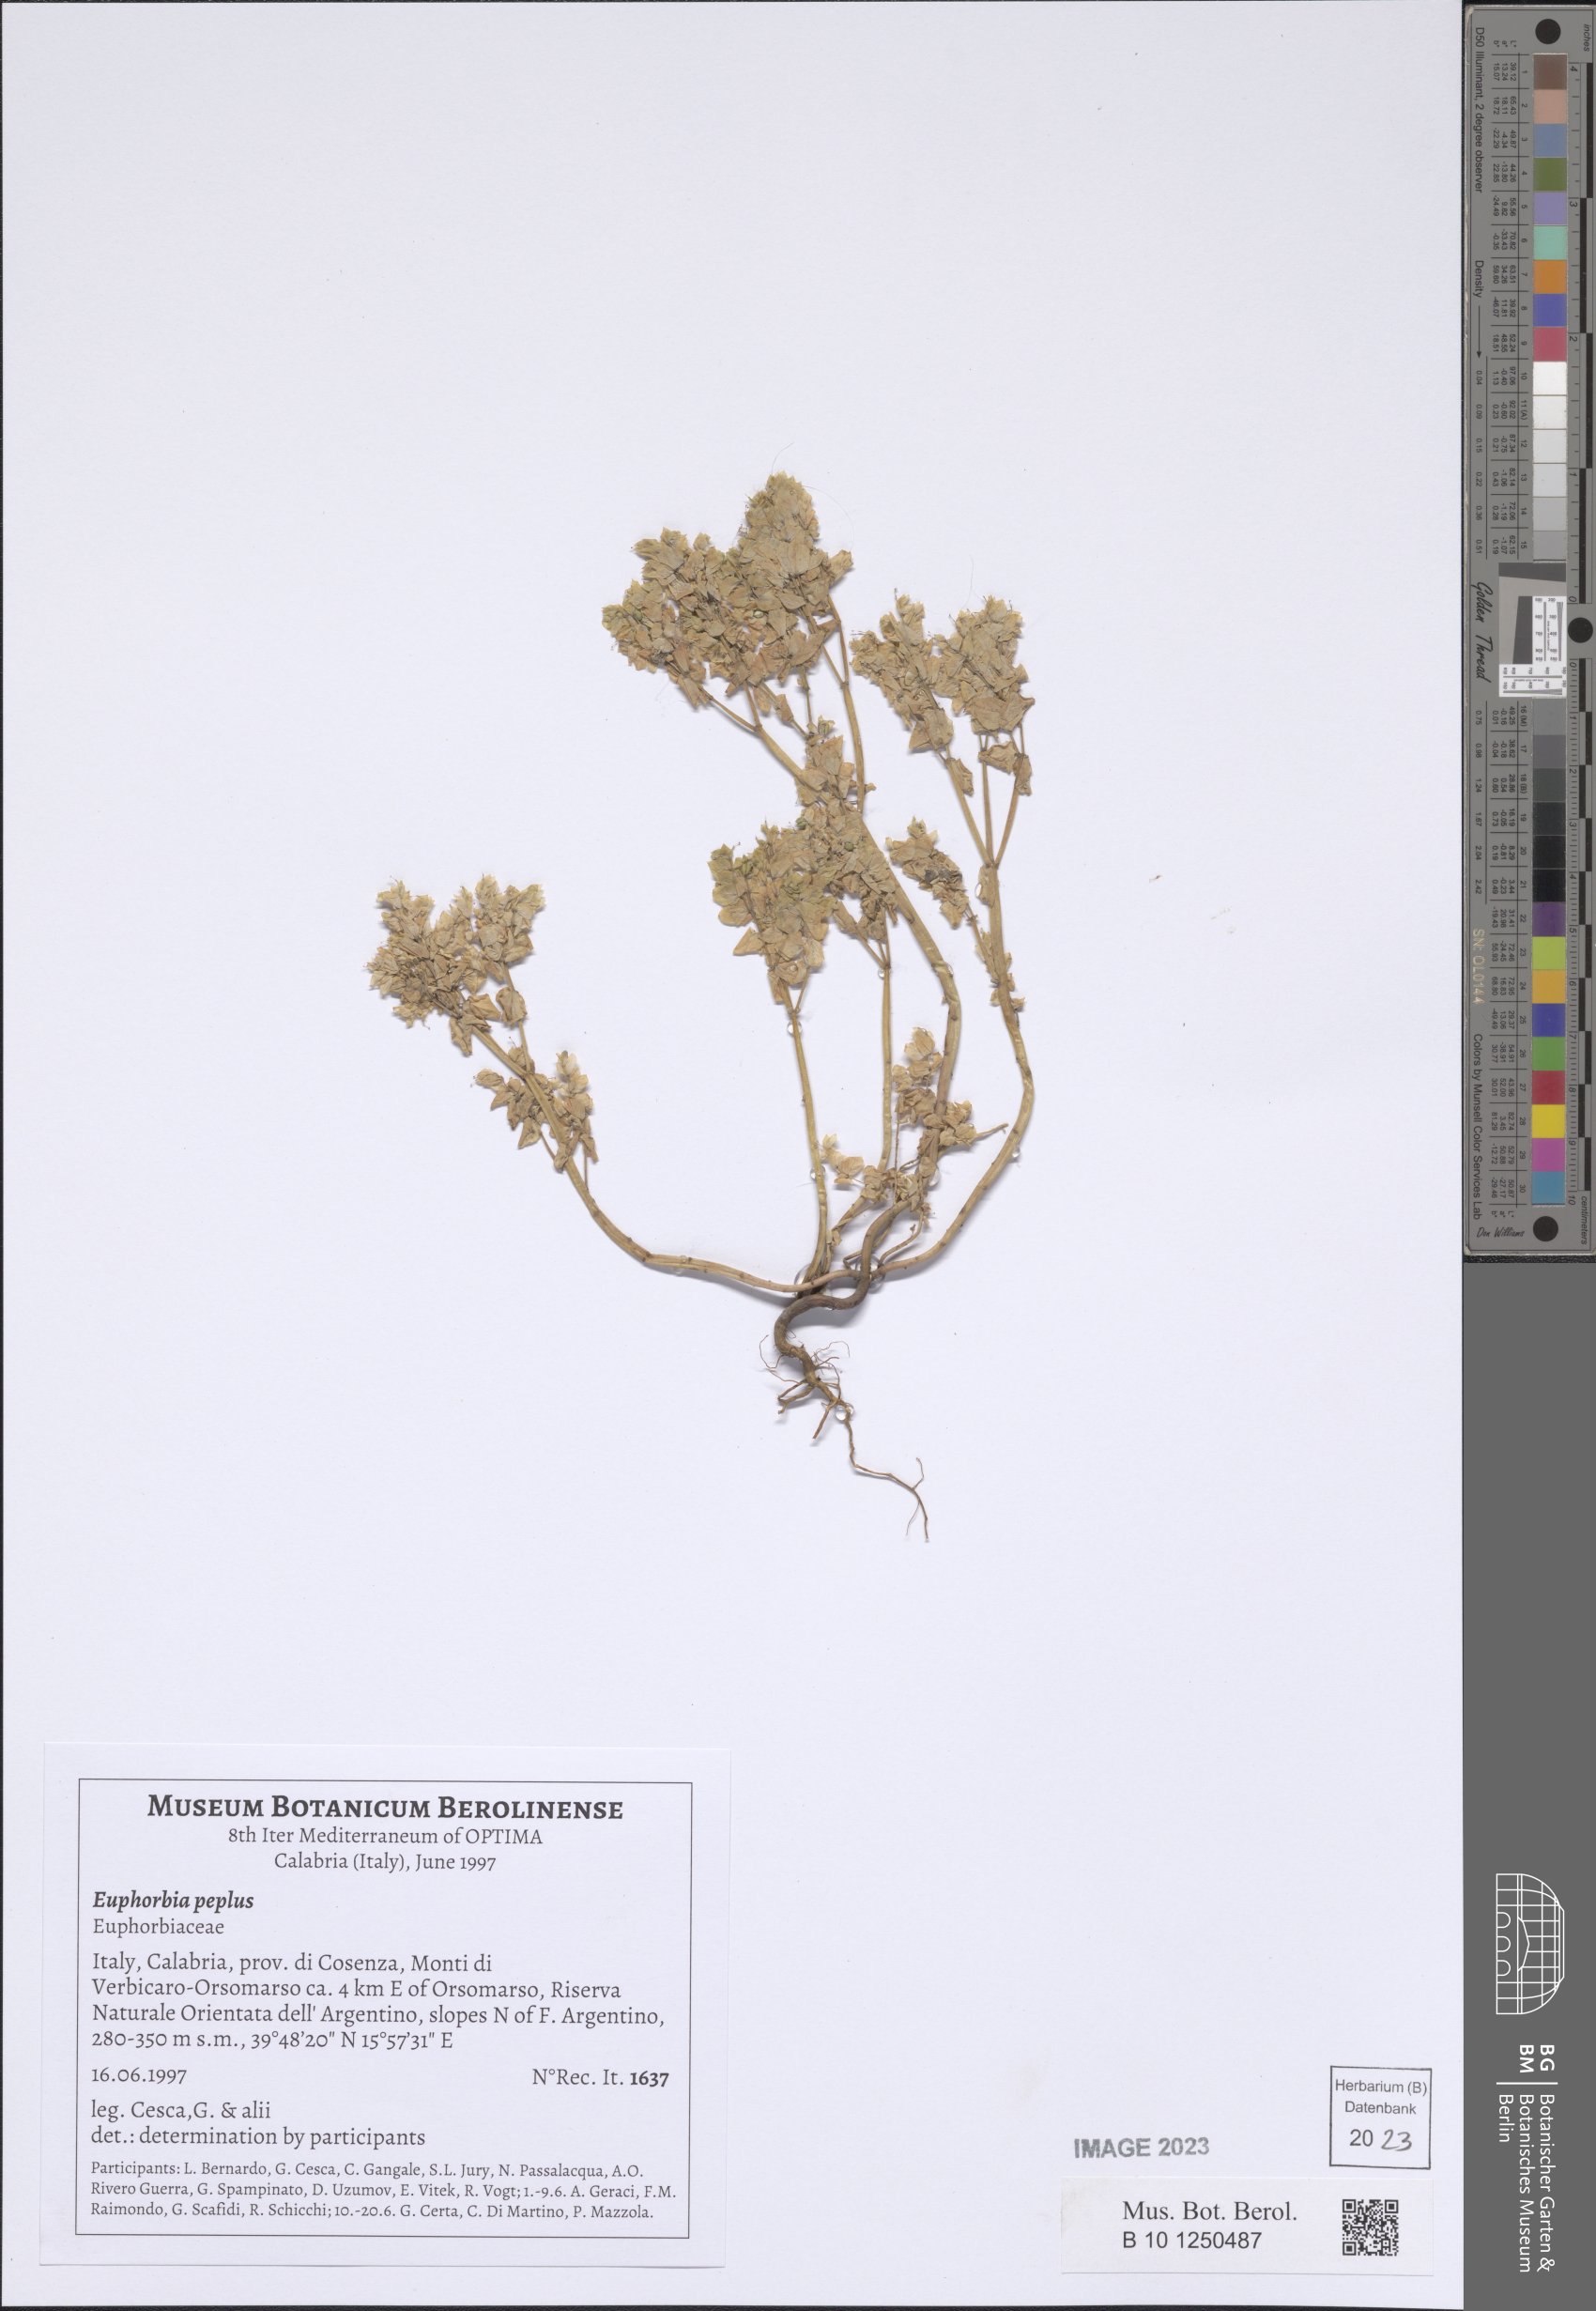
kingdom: Plantae
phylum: Tracheophyta
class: Magnoliopsida
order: Malpighiales
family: Euphorbiaceae
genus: Euphorbia
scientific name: Euphorbia peplus
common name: Petty spurge
